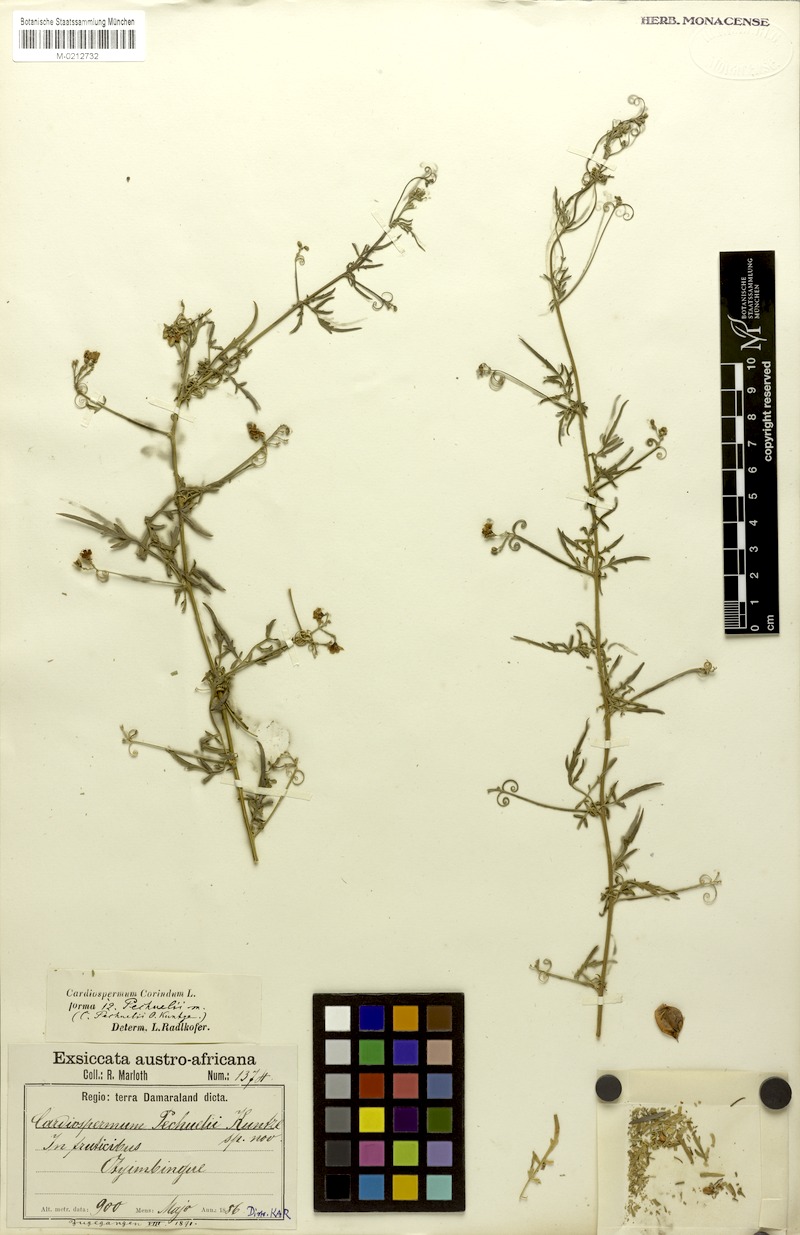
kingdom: Plantae
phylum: Tracheophyta
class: Magnoliopsida
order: Sapindales
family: Sapindaceae
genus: Cardiospermum
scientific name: Cardiospermum corindum
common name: Faux persil
